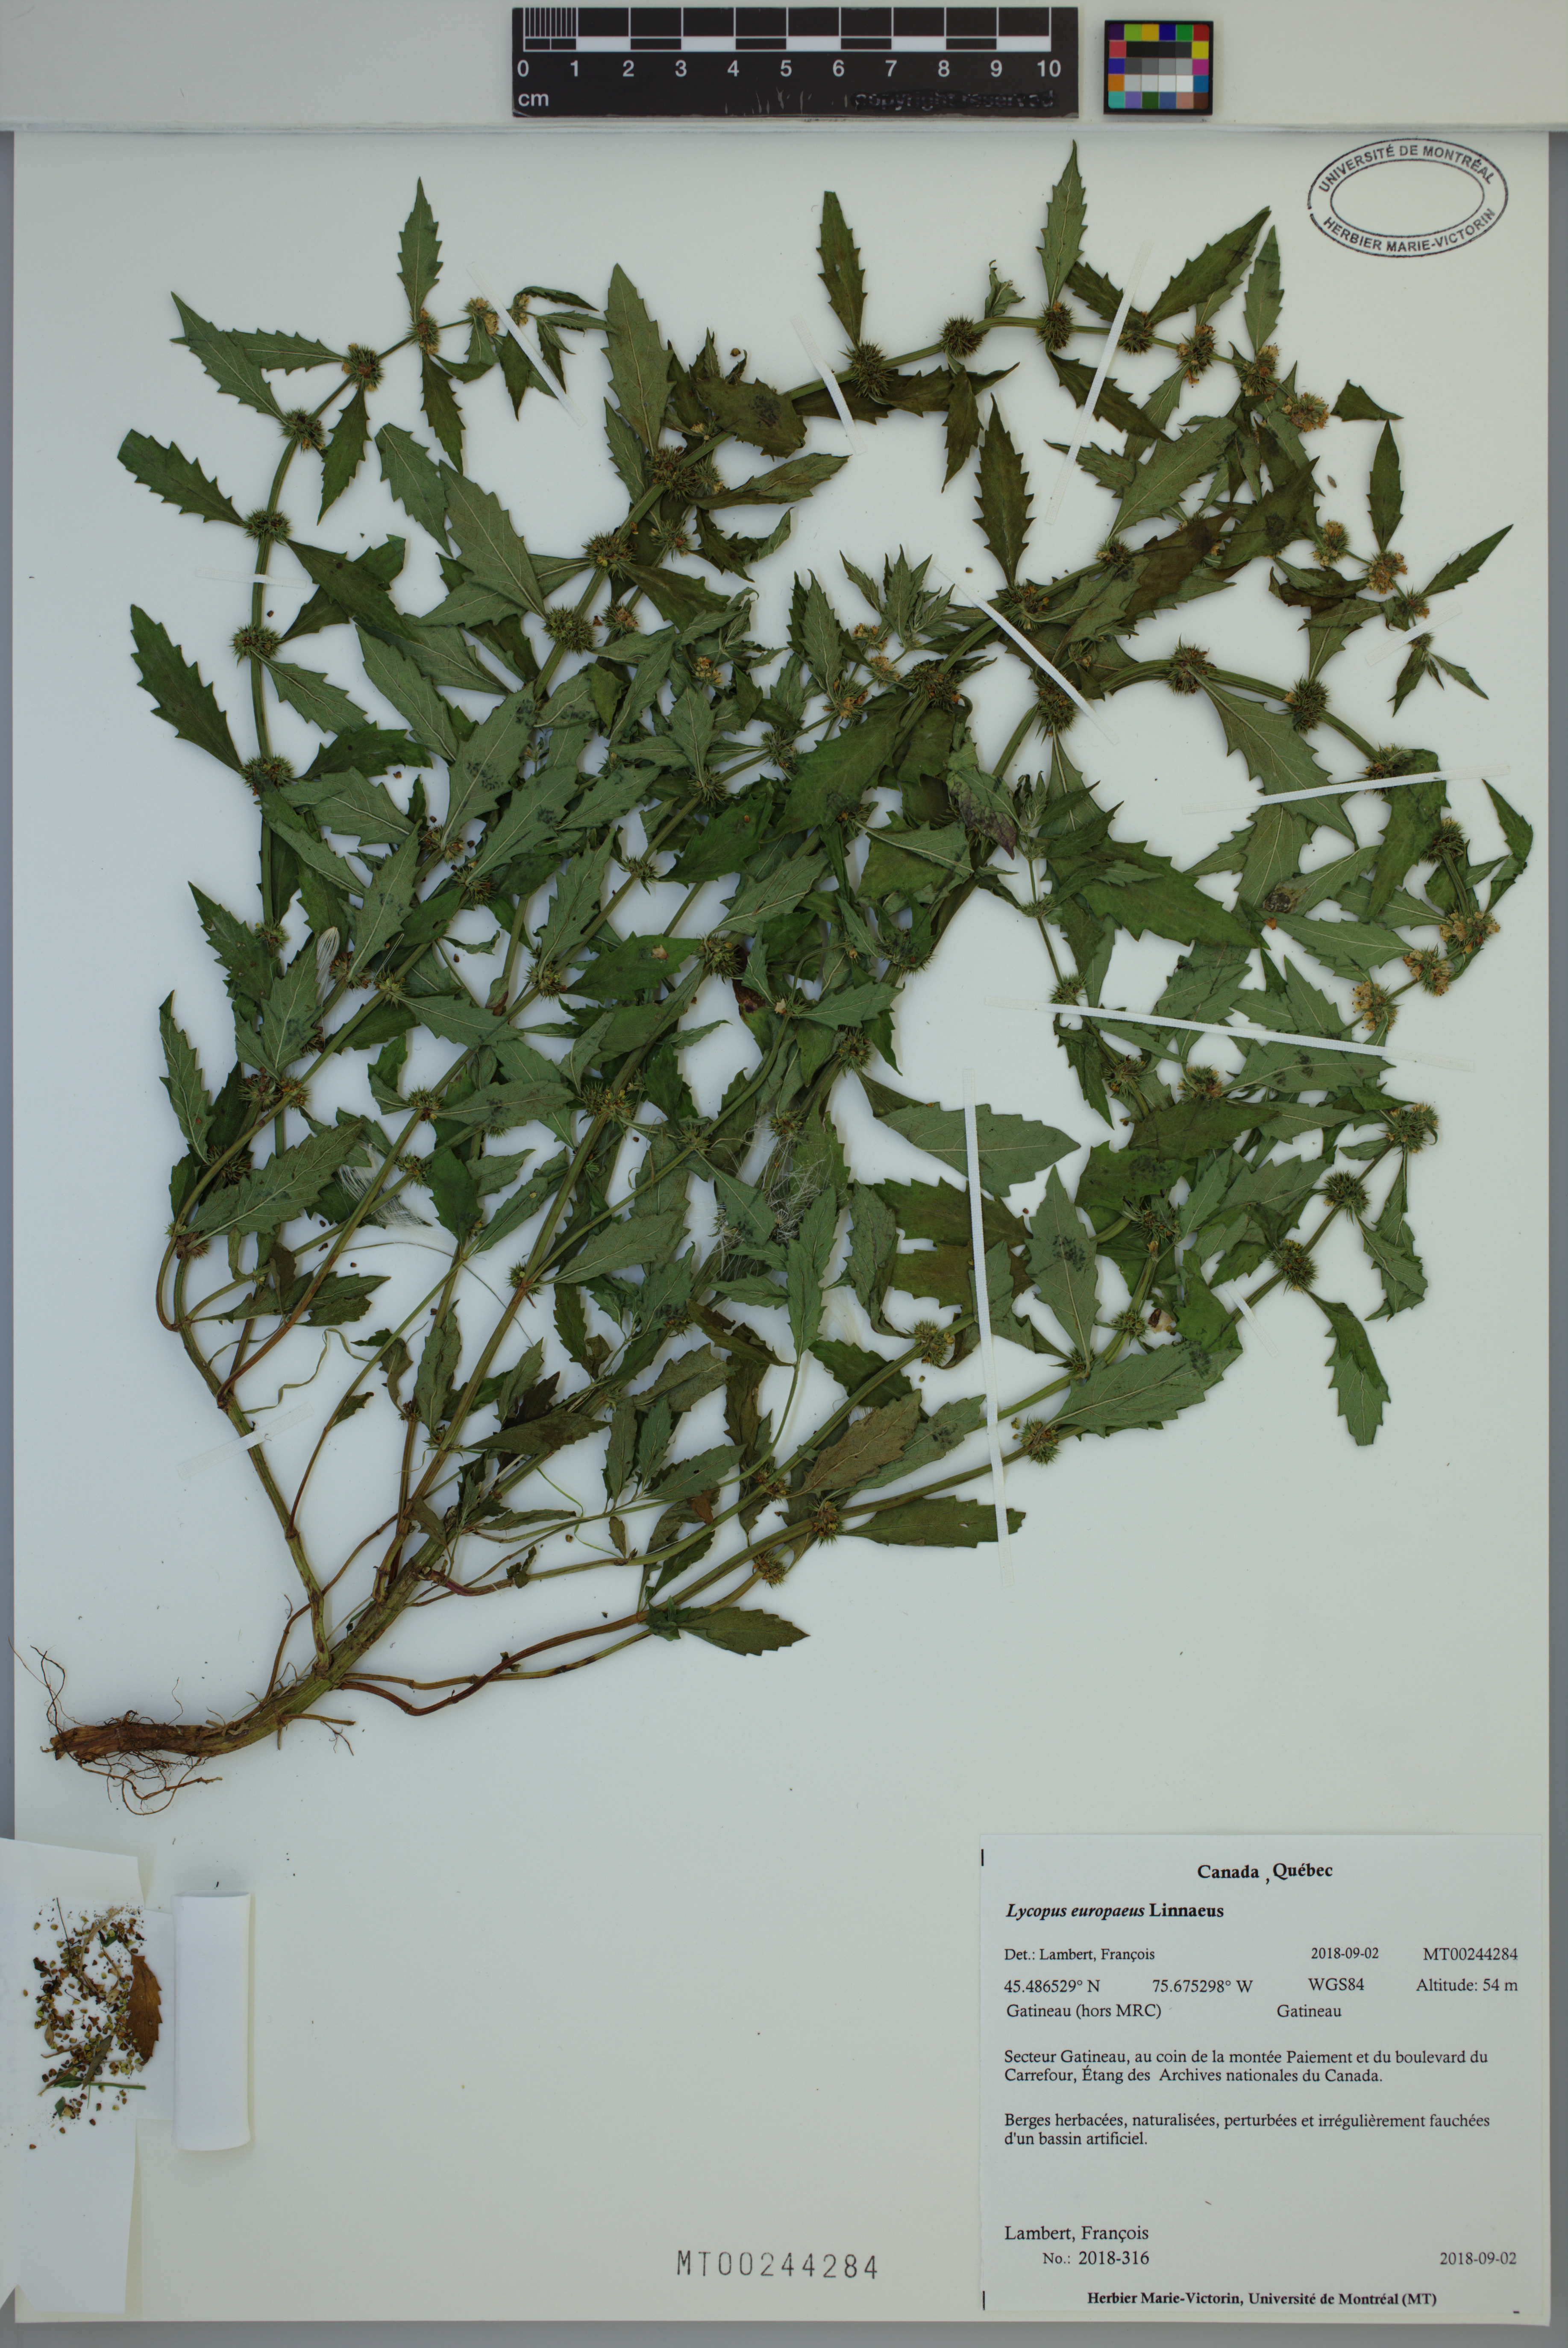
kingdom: Plantae
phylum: Tracheophyta
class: Magnoliopsida
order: Lamiales
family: Lamiaceae
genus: Lycopus
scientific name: Lycopus europaeus
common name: European bugleweed
